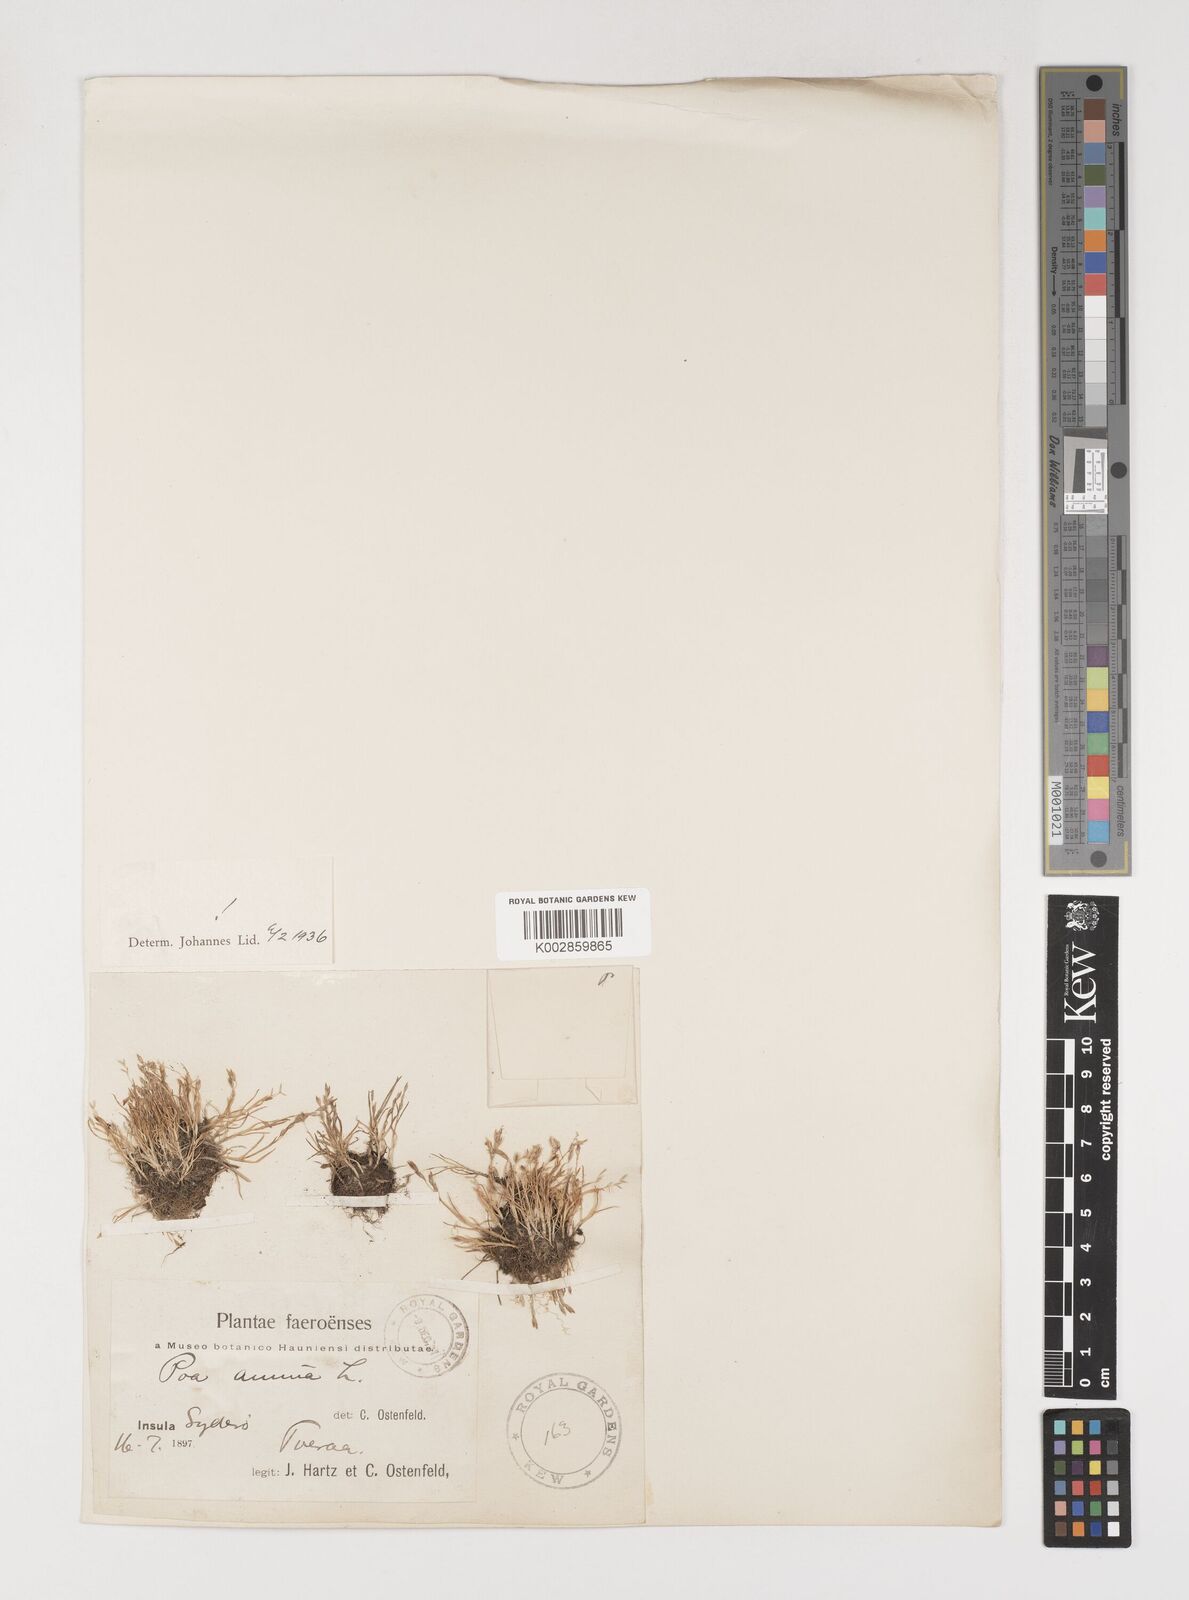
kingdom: Plantae
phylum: Tracheophyta
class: Liliopsida
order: Poales
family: Poaceae
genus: Poa
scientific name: Poa annua
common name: Annual bluegrass
